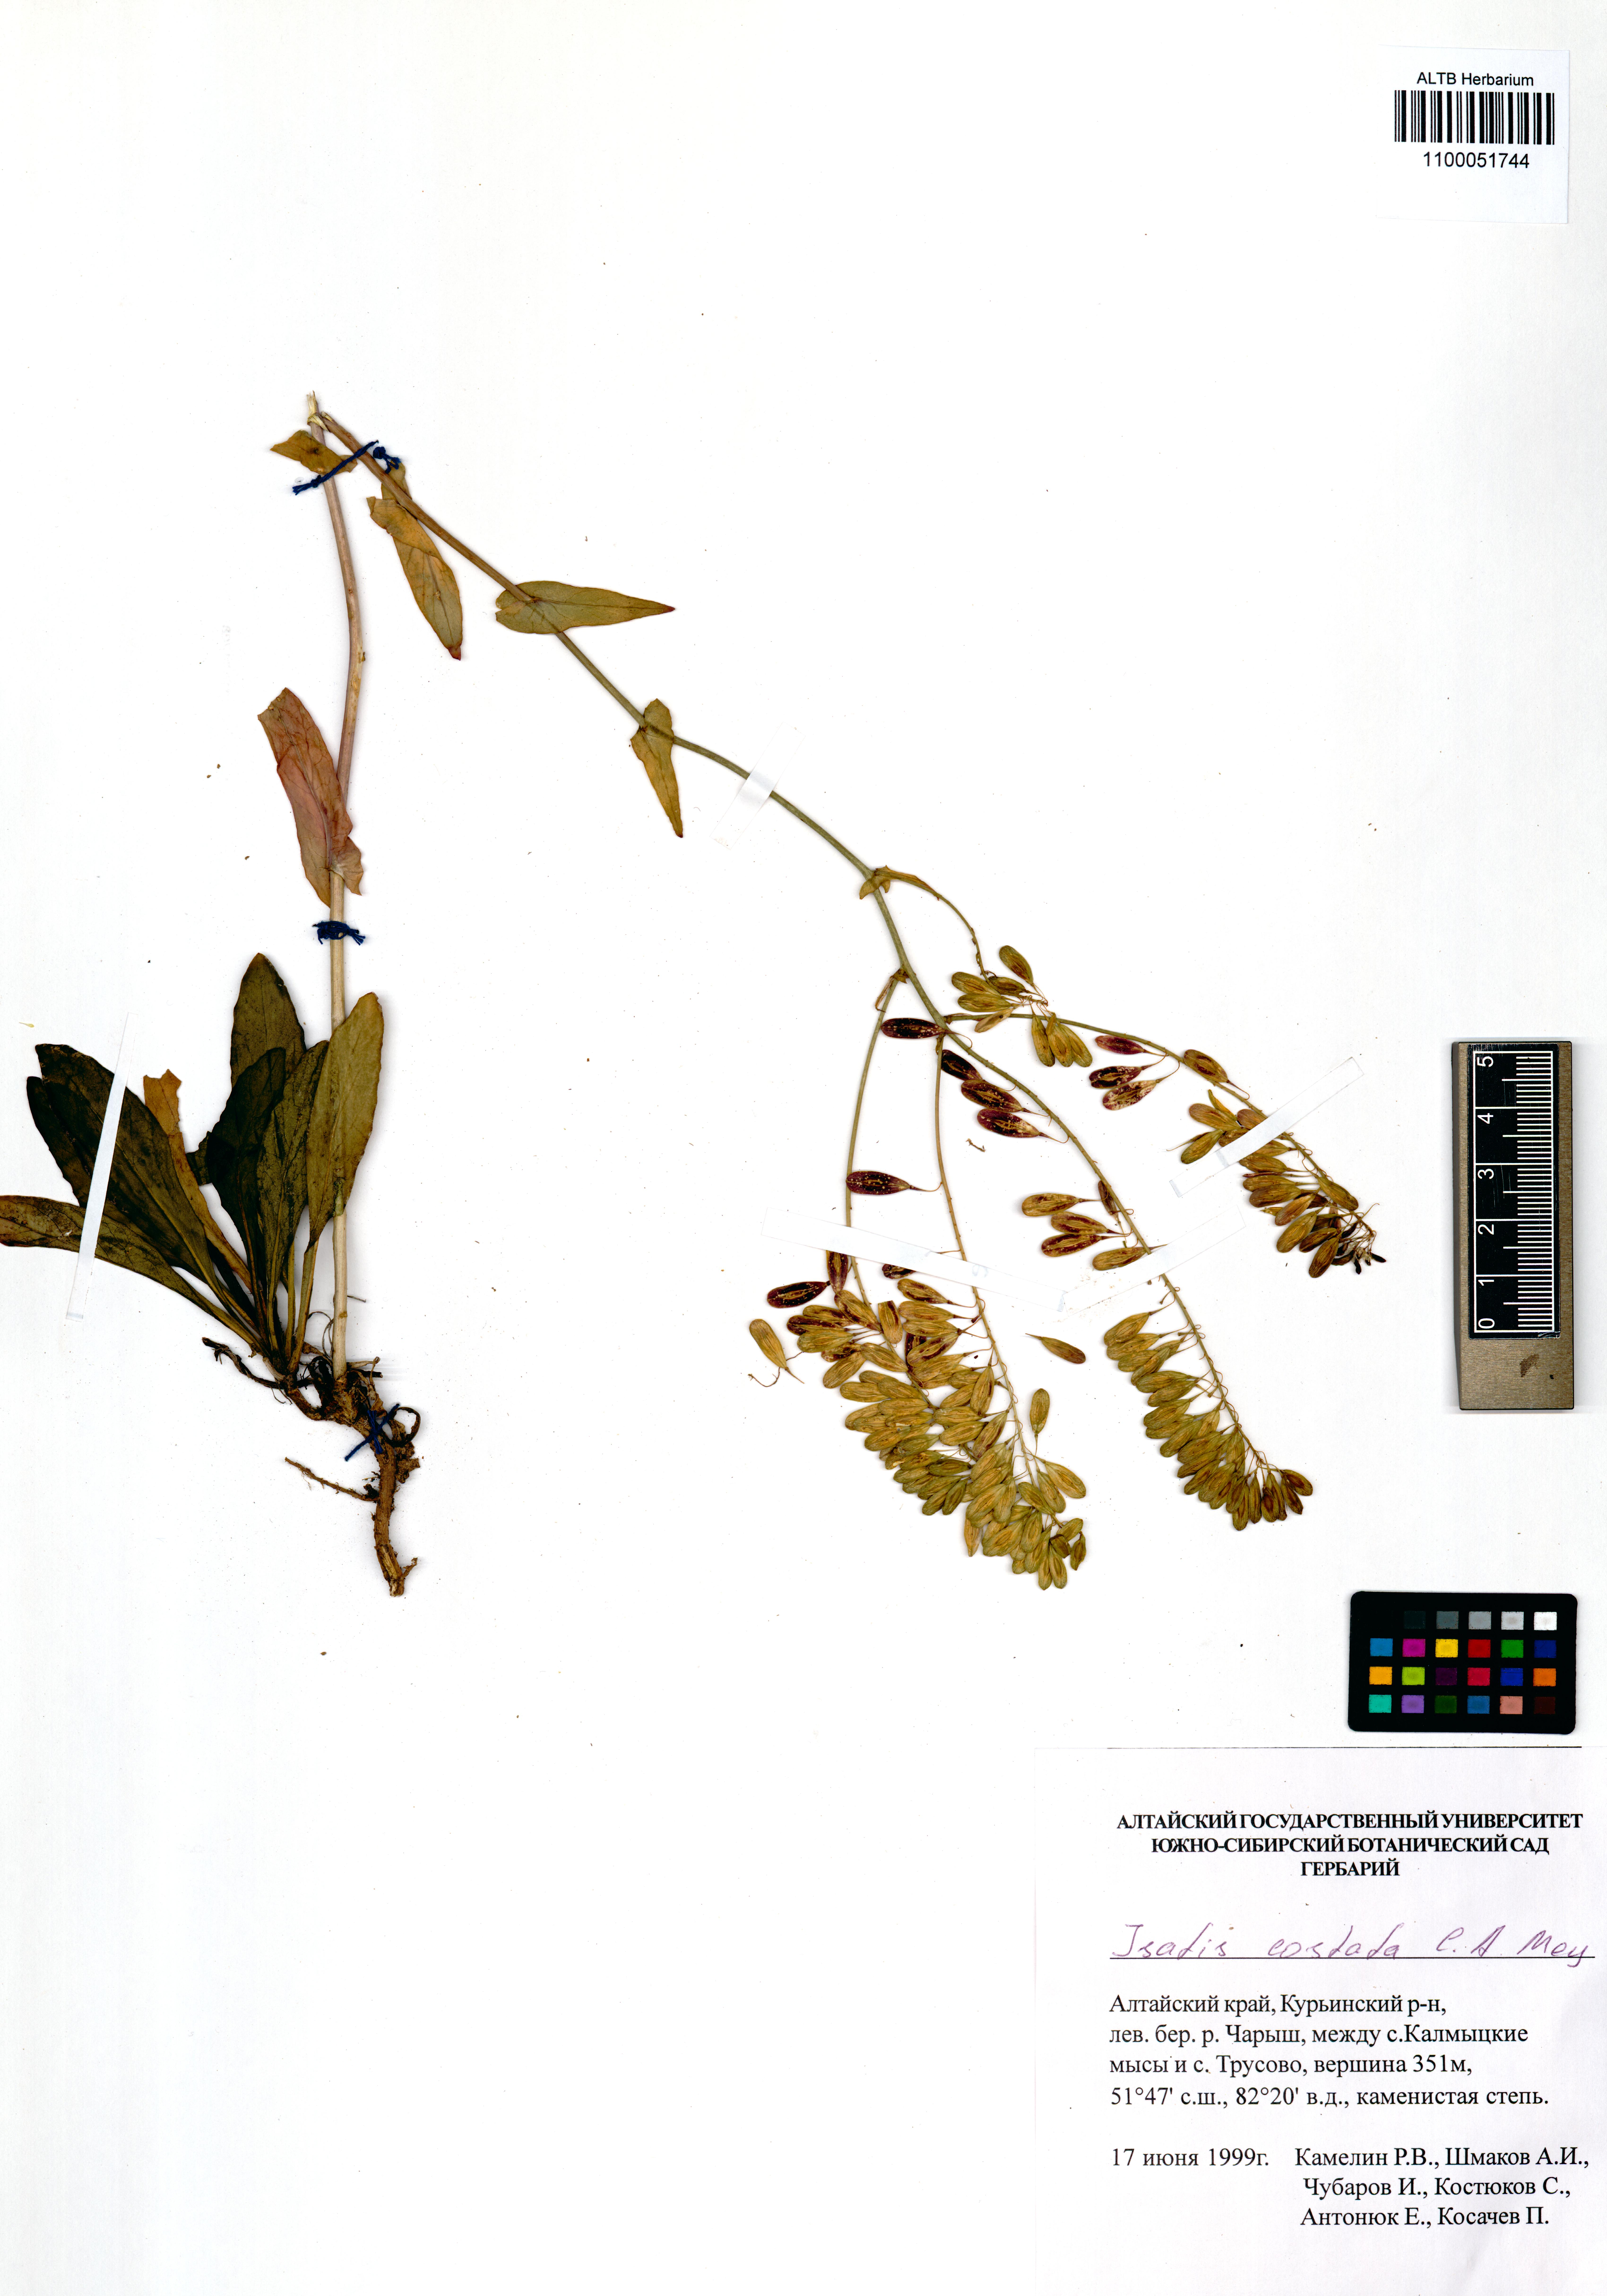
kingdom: Plantae
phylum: Tracheophyta
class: Magnoliopsida
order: Brassicales
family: Brassicaceae
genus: Isatis
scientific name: Isatis costata
